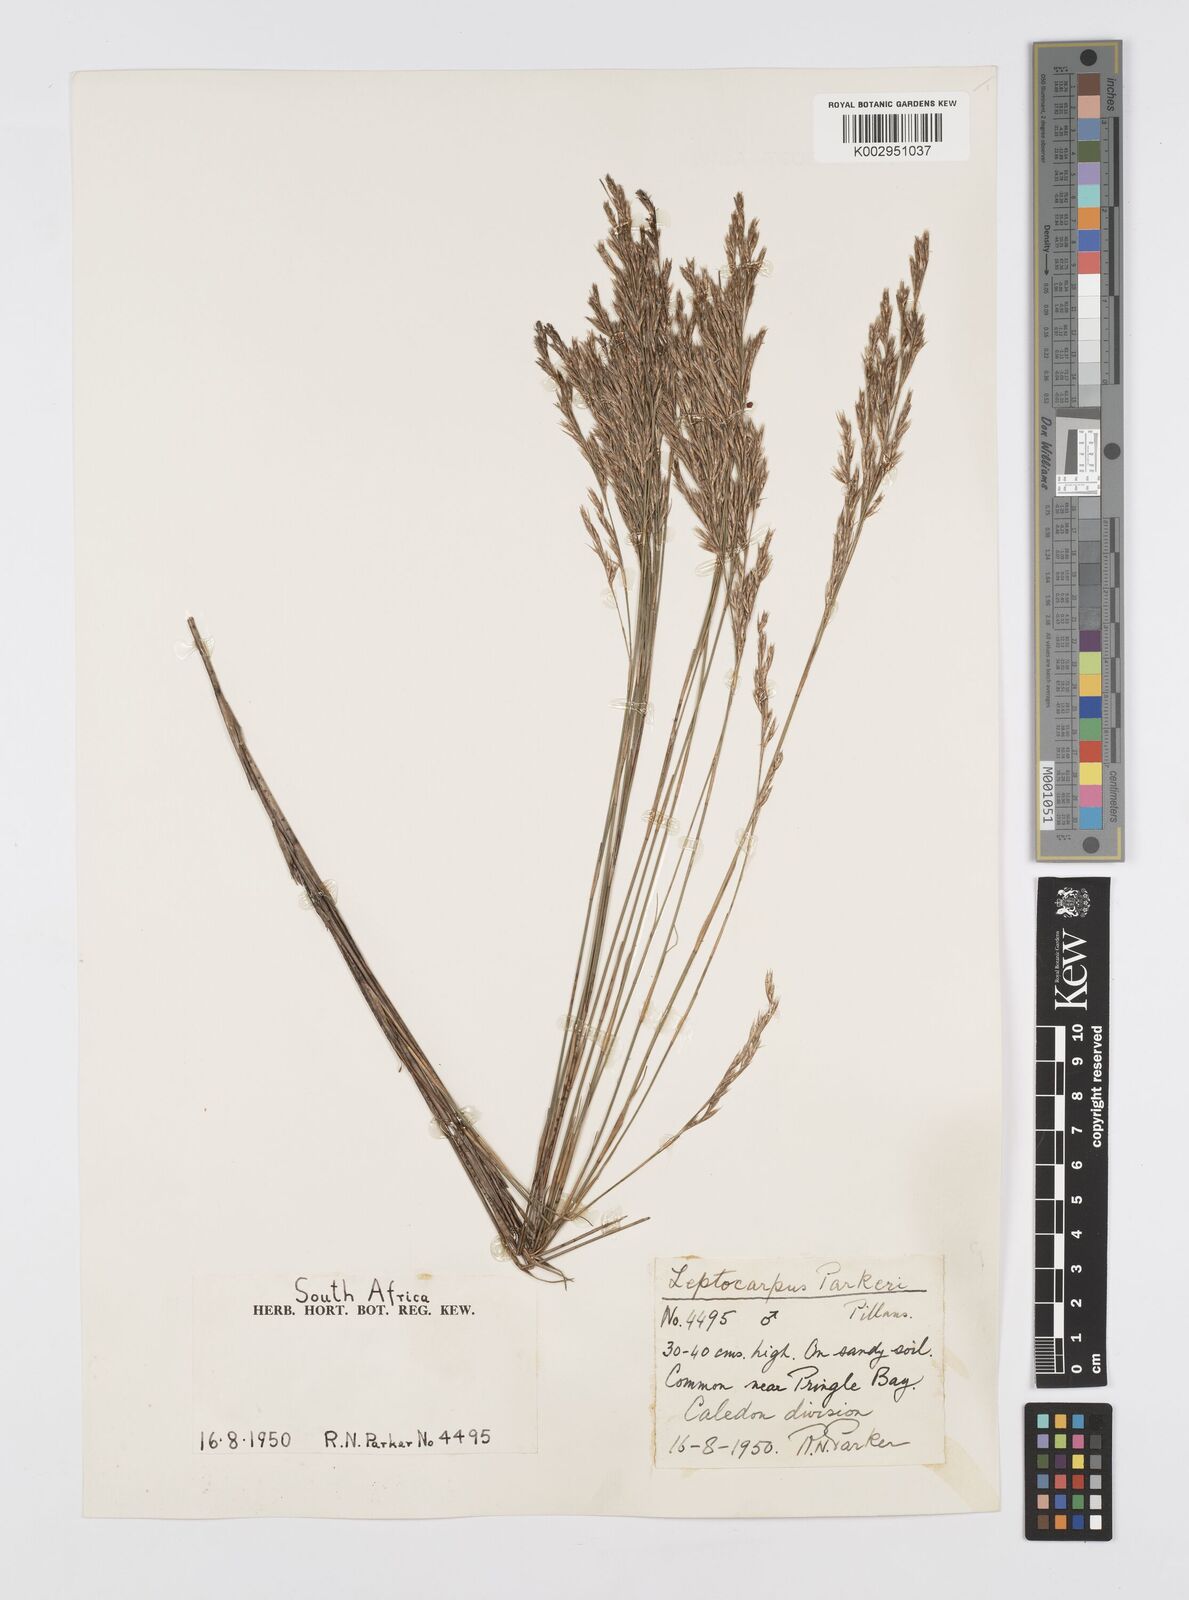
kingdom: Plantae
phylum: Tracheophyta
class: Liliopsida
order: Poales
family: Restionaceae
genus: Restio
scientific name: Restio festuciformis
